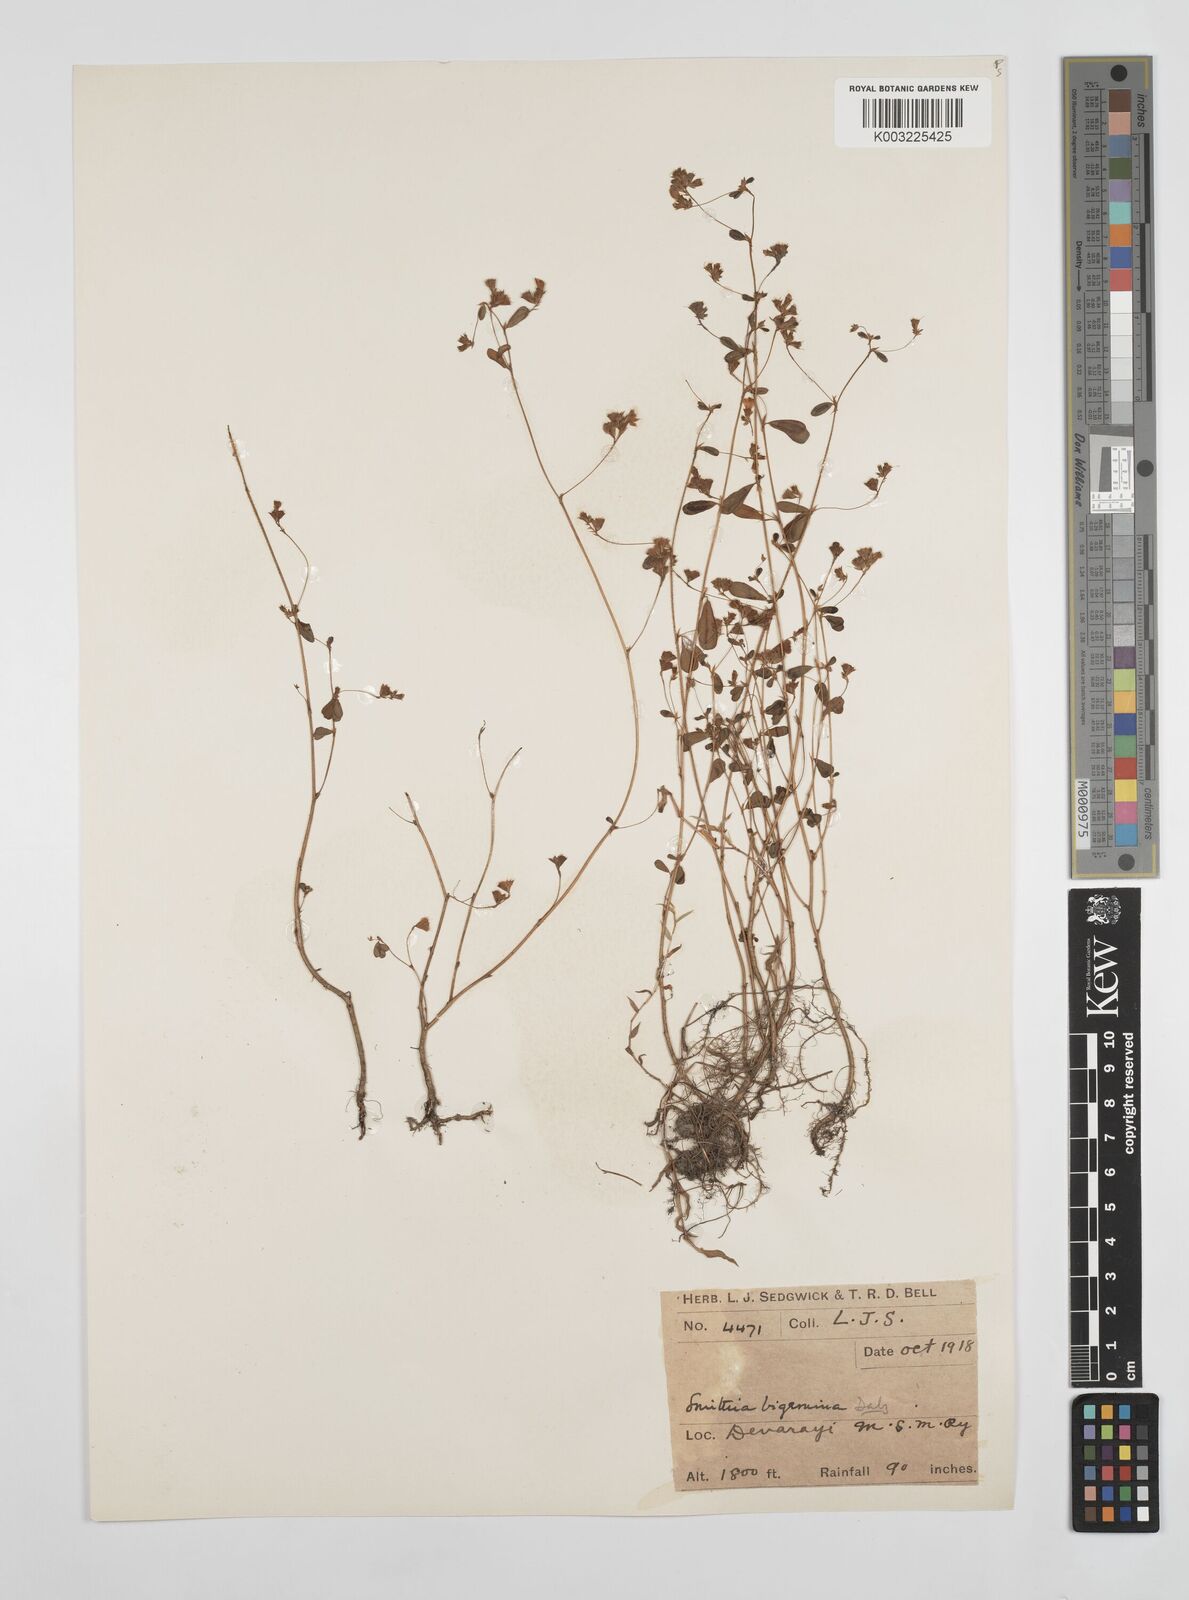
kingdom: Plantae
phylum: Tracheophyta
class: Magnoliopsida
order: Fabales
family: Fabaceae
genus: Smithia
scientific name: Smithia bigemina
